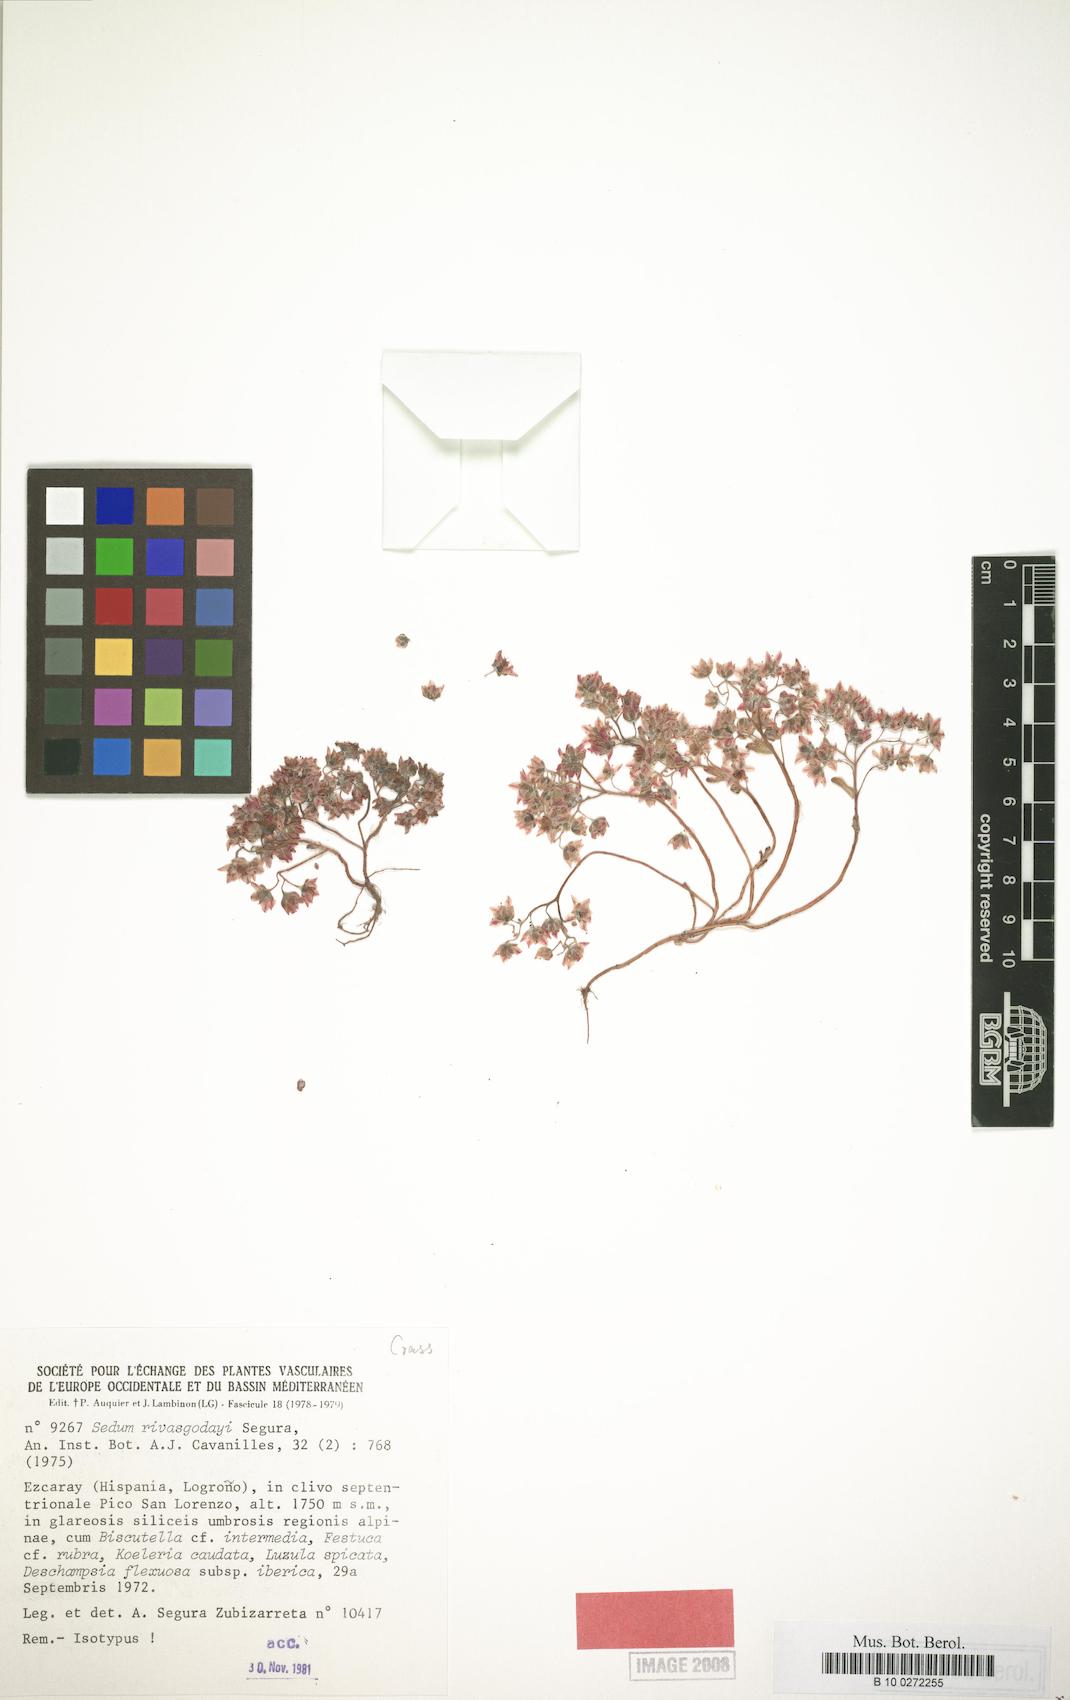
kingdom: Plantae
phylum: Tracheophyta
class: Magnoliopsida
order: Saxifragales
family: Crassulaceae
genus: Sedum
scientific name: Sedum nevadense
